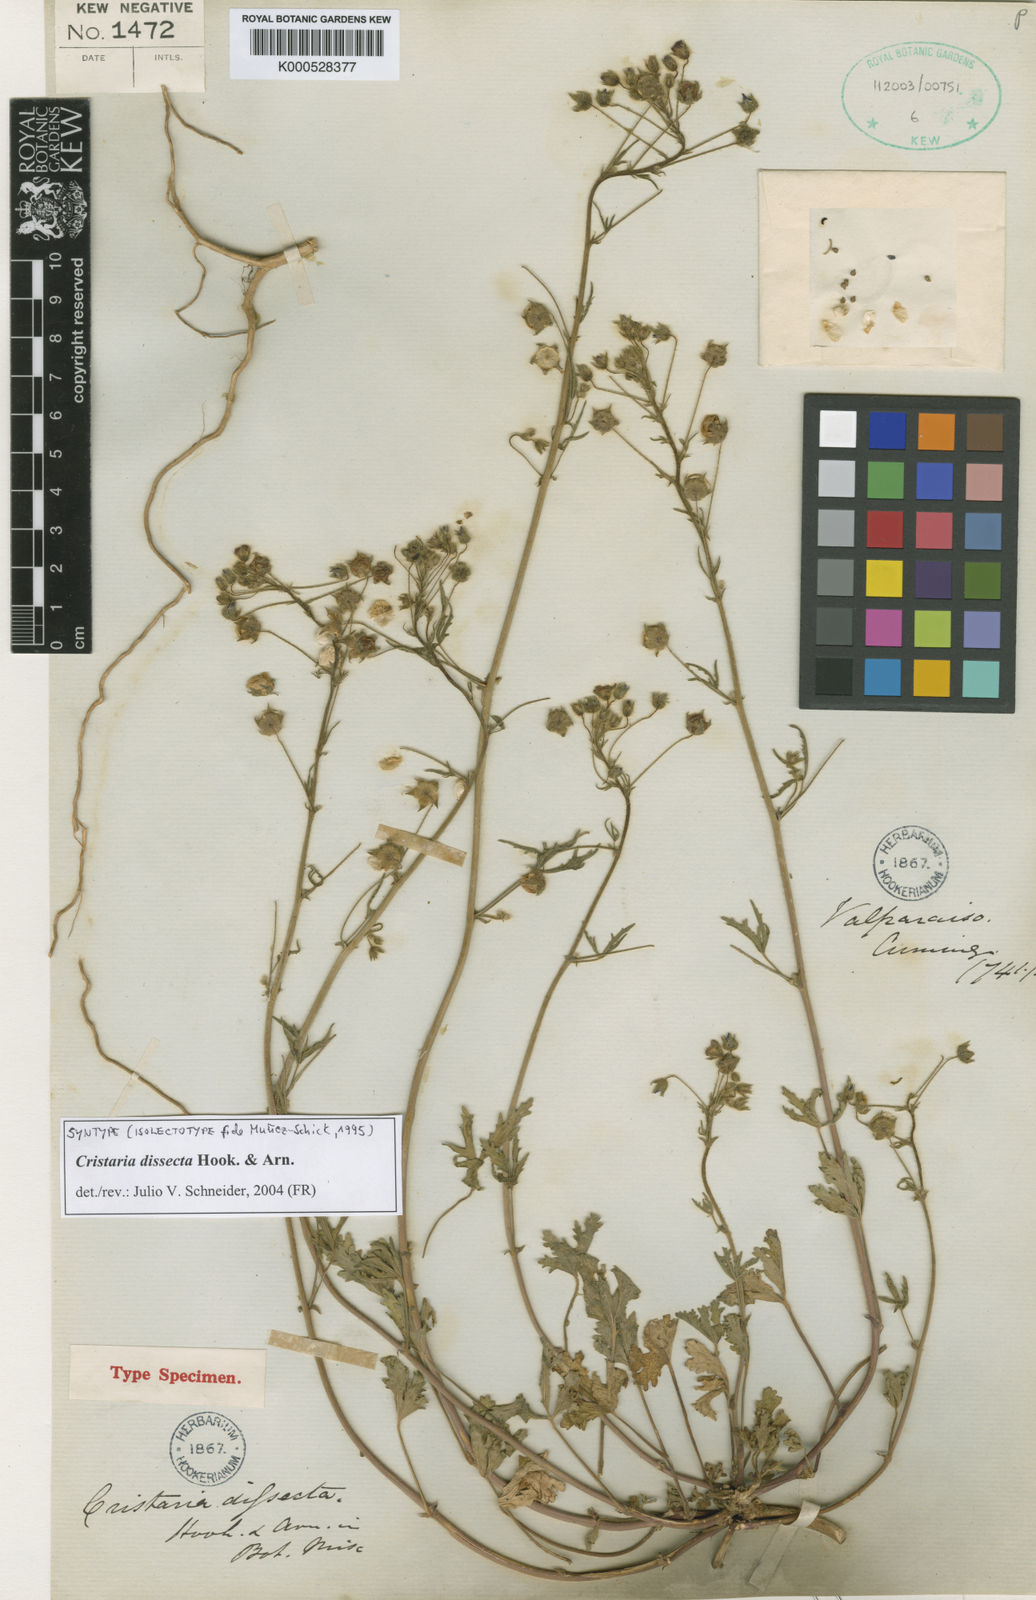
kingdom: Plantae
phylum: Tracheophyta
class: Magnoliopsida
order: Malvales
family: Malvaceae
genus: Cristaria
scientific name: Cristaria dissecta
